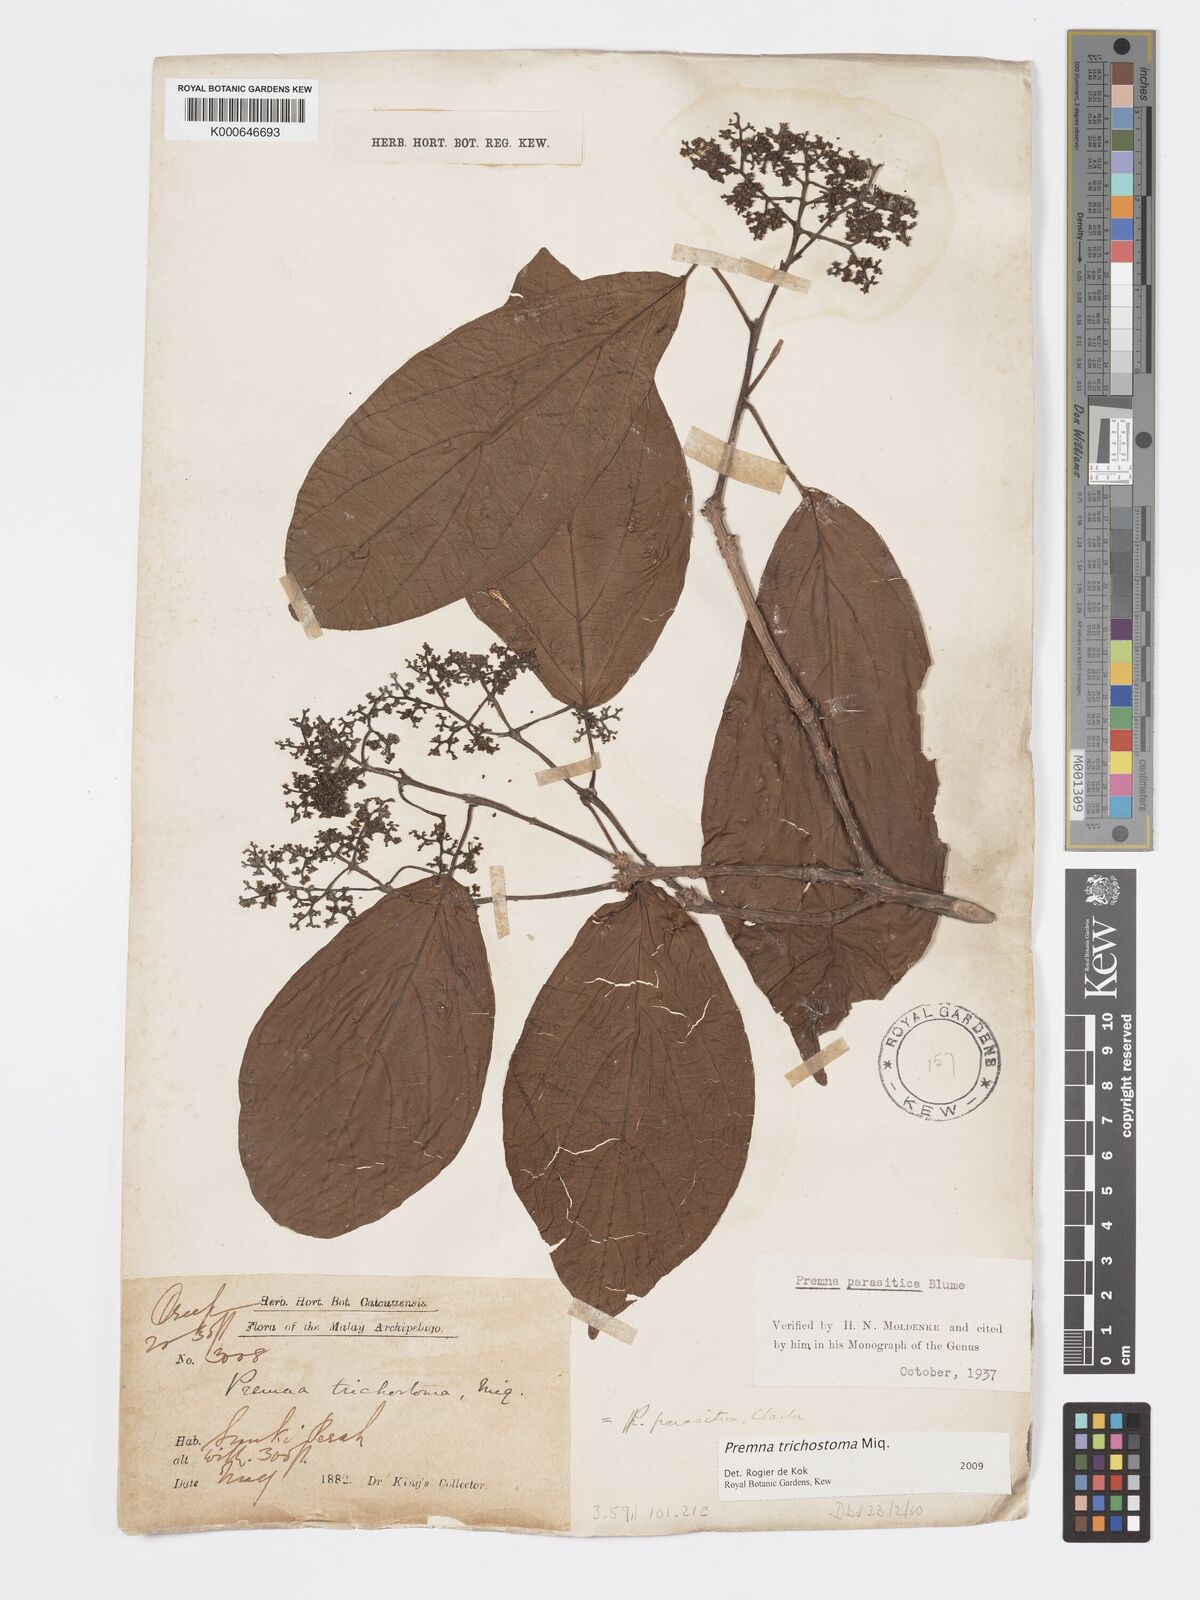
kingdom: Plantae
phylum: Tracheophyta
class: Magnoliopsida
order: Lamiales
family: Lamiaceae
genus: Premna
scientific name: Premna trichostoma
